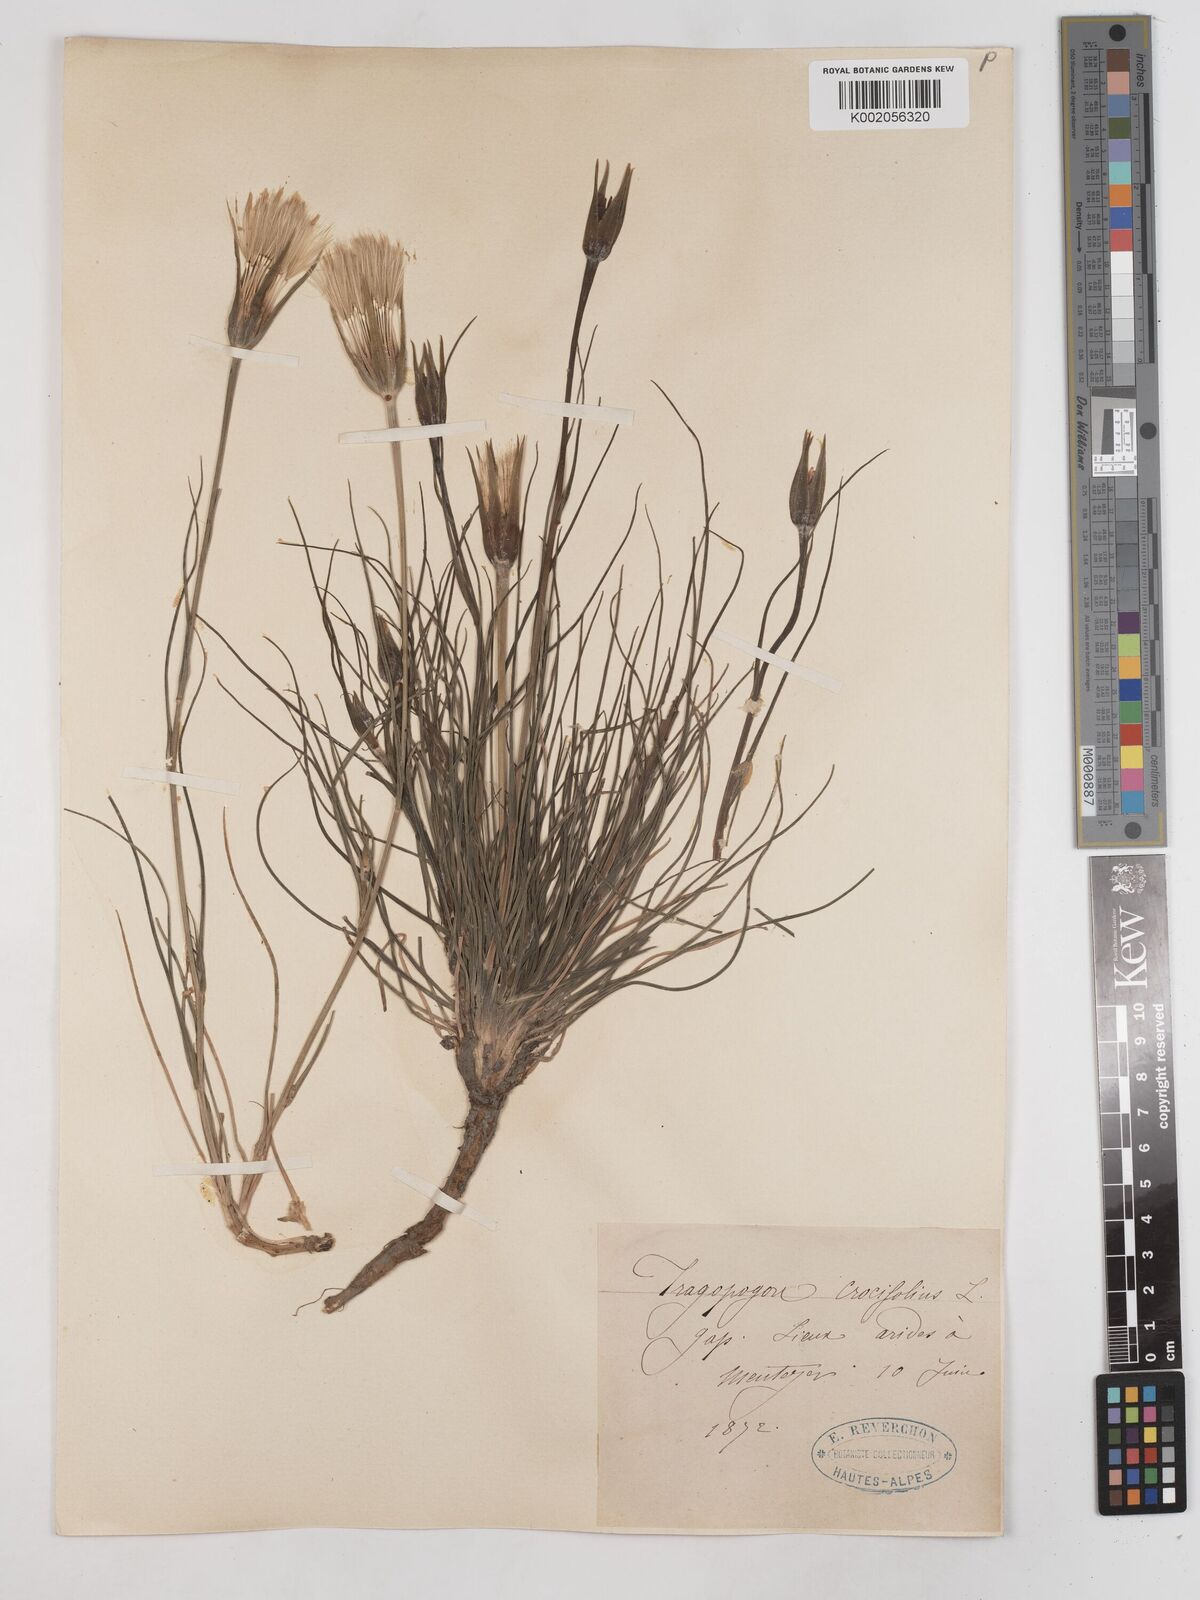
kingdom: Plantae
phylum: Tracheophyta
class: Magnoliopsida
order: Asterales
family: Asteraceae
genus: Tragopogon
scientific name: Tragopogon crocifolius
